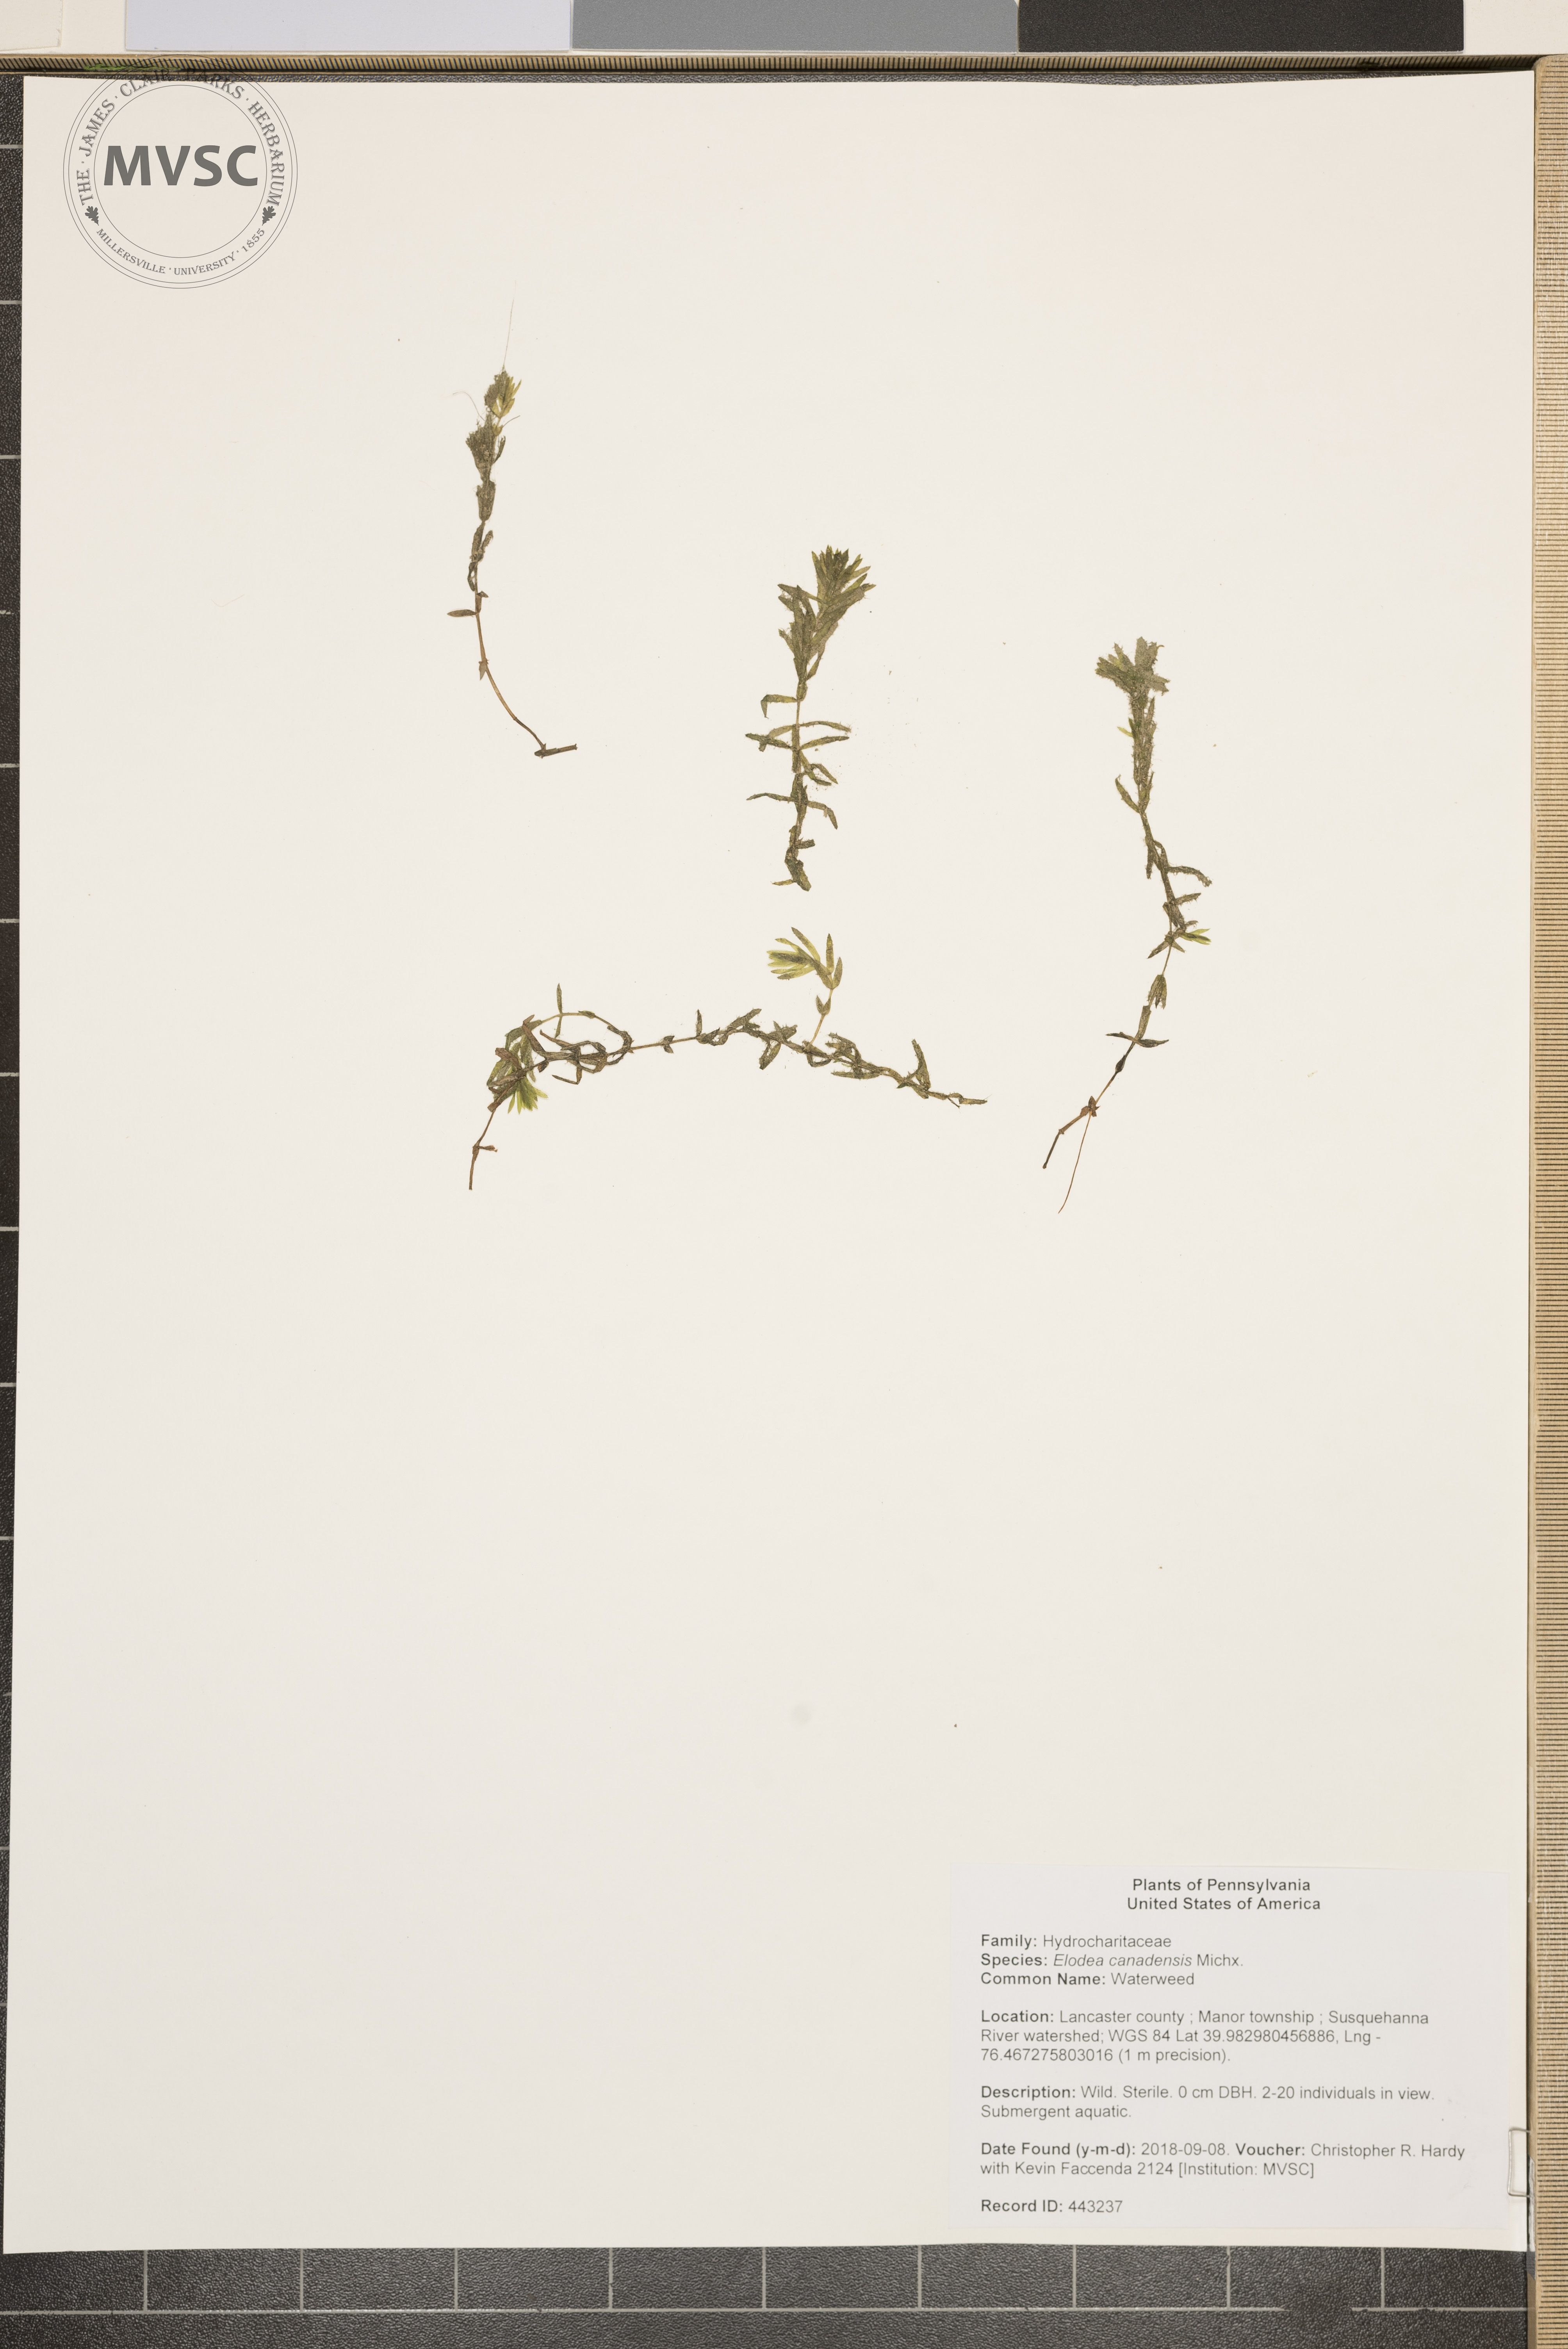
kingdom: Plantae
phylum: Tracheophyta
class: Liliopsida
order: Alismatales
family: Hydrocharitaceae
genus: Elodea
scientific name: Elodea canadensis
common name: Waterweed
